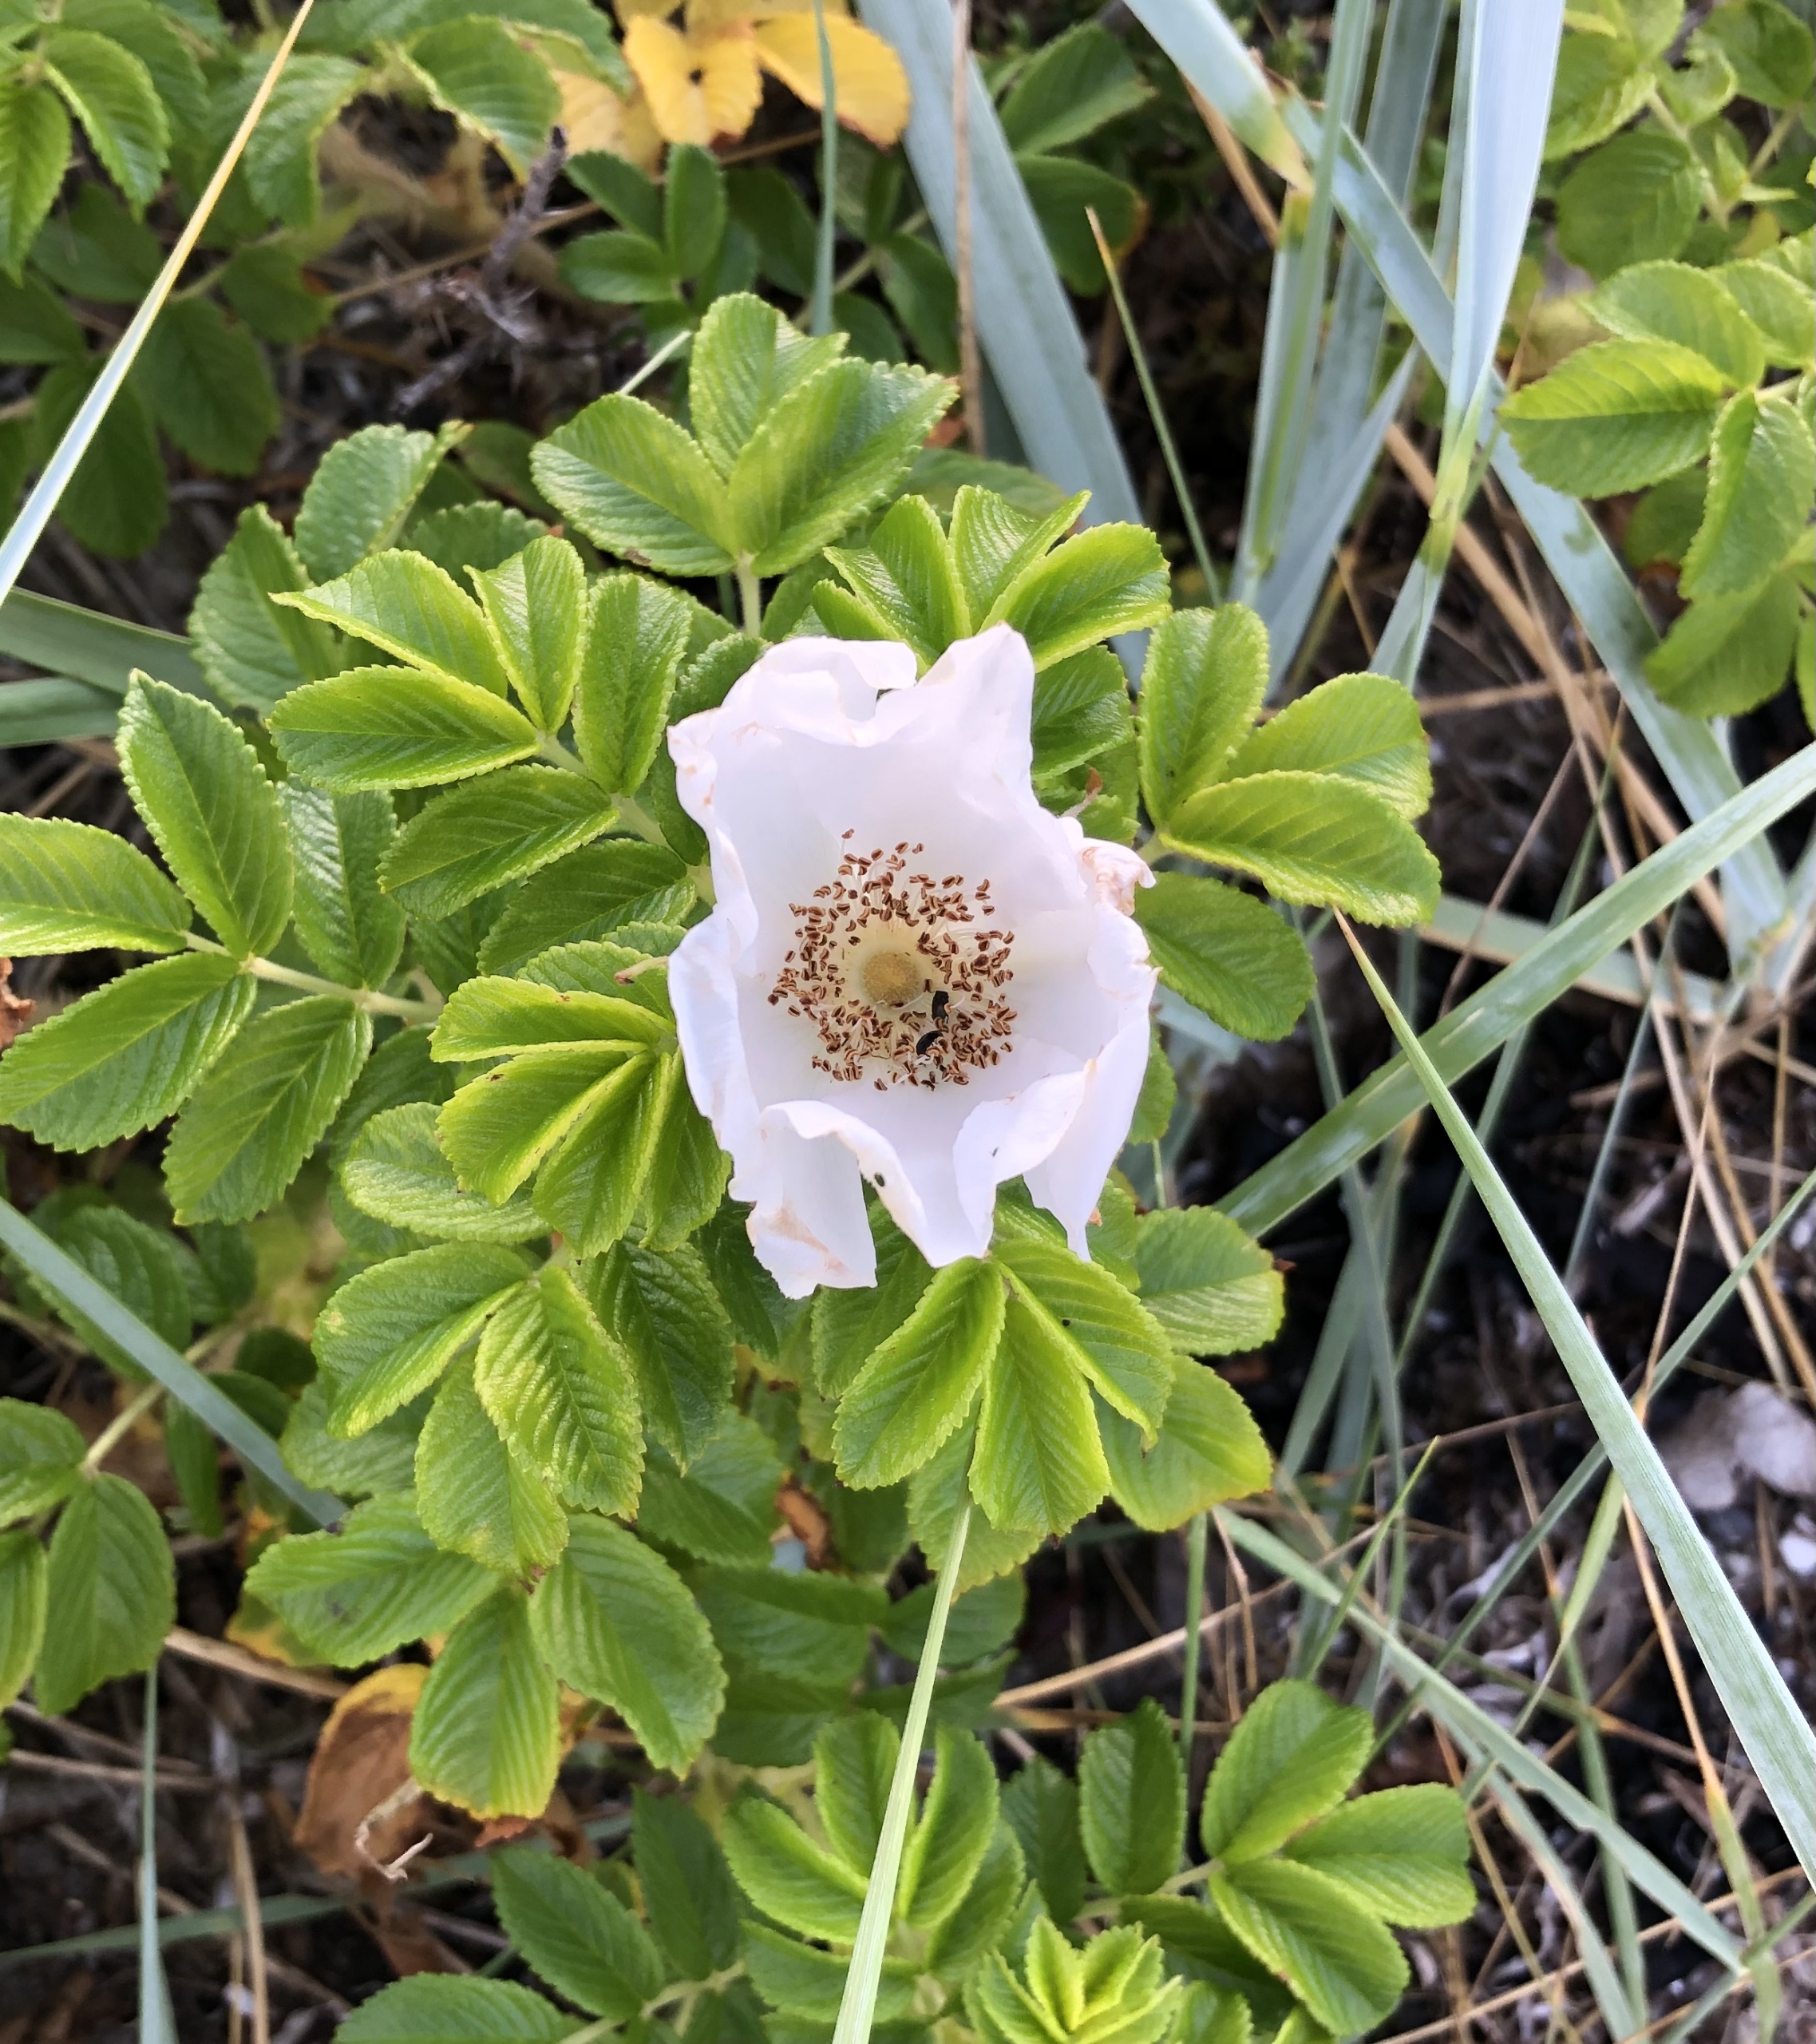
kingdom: Plantae
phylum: Tracheophyta
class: Magnoliopsida
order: Rosales
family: Rosaceae
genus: Rosa
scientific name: Rosa rugosa
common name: Rynket rose
